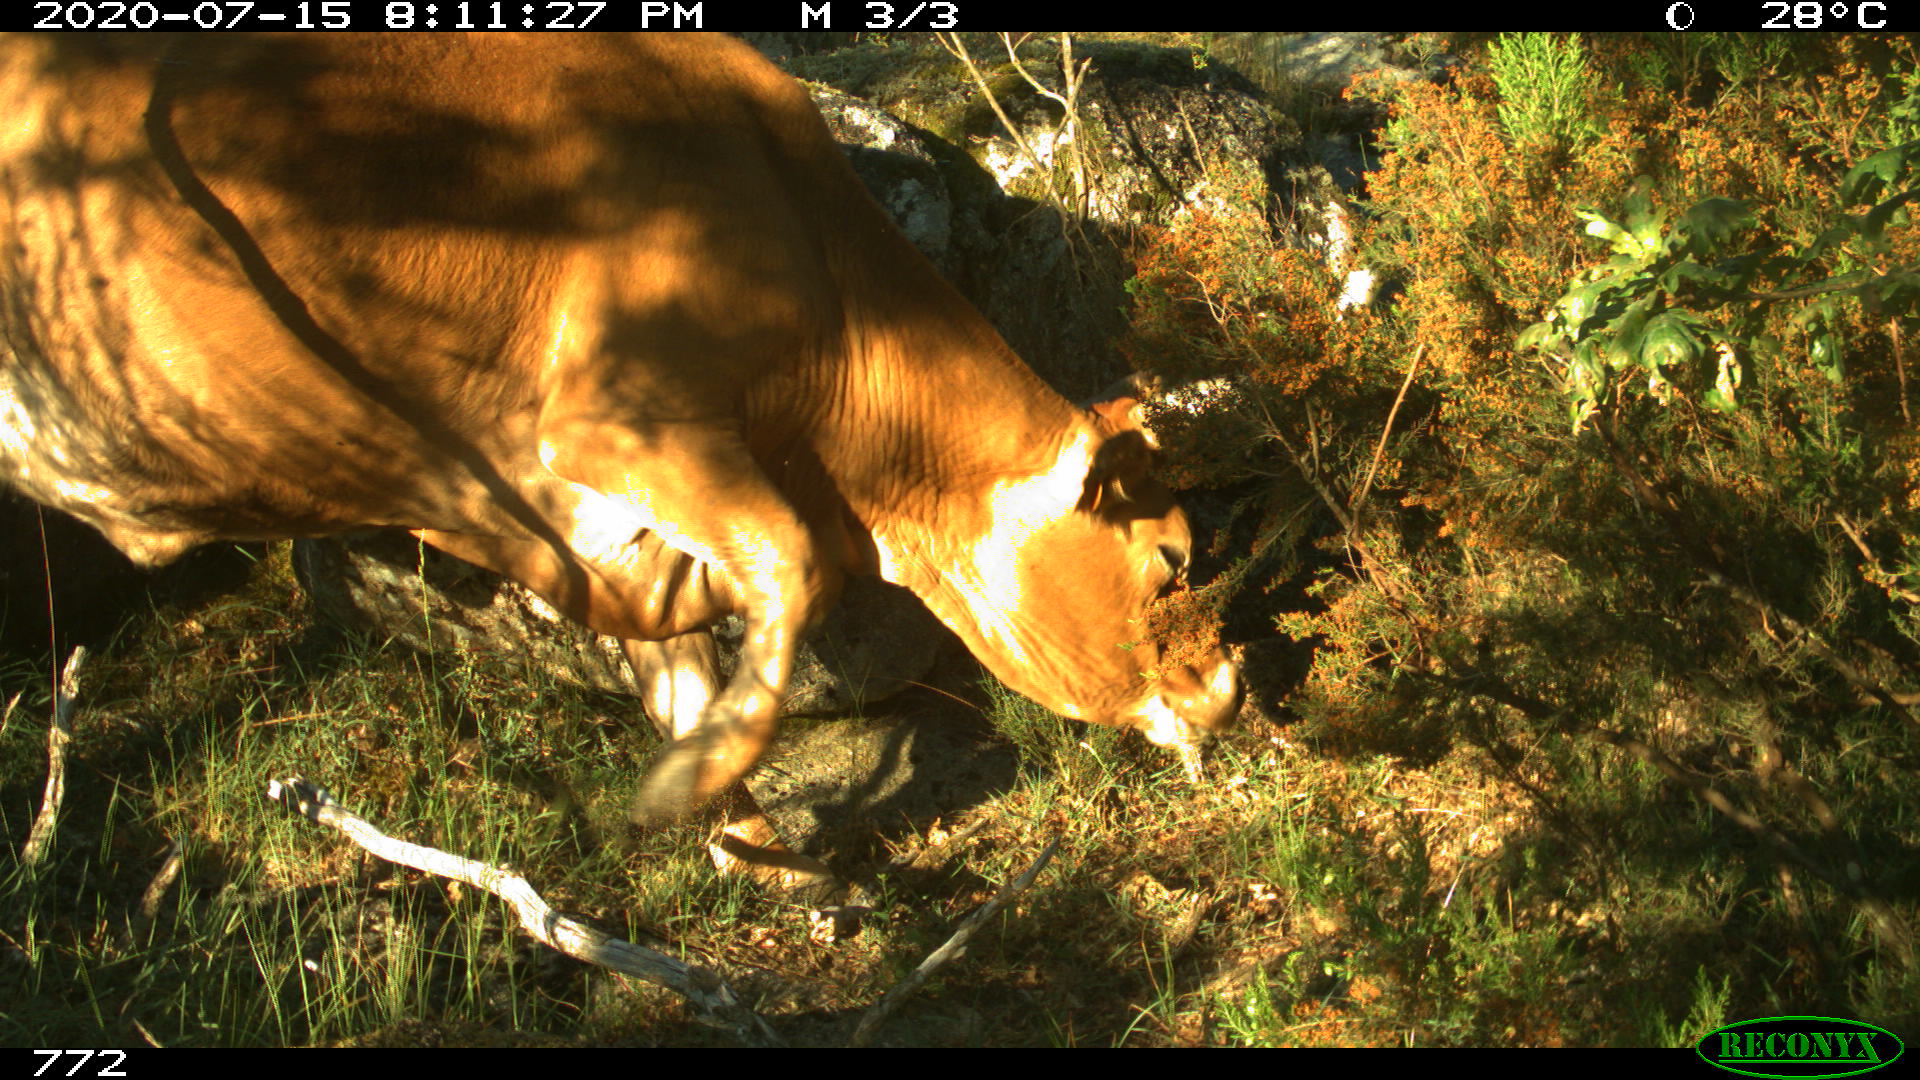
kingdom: Animalia
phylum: Chordata
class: Mammalia
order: Artiodactyla
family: Bovidae
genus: Bos
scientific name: Bos taurus
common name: Domesticated cattle
